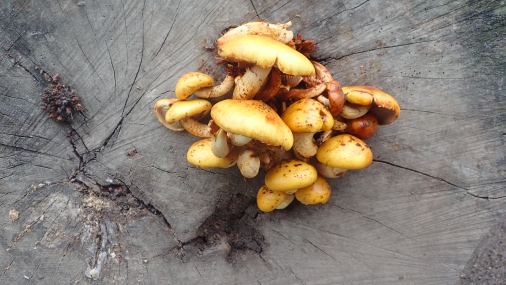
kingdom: Fungi
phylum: Basidiomycota
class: Agaricomycetes
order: Agaricales
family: Strophariaceae
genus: Pholiota
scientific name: Pholiota adiposa
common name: højtsiddende skælhat
